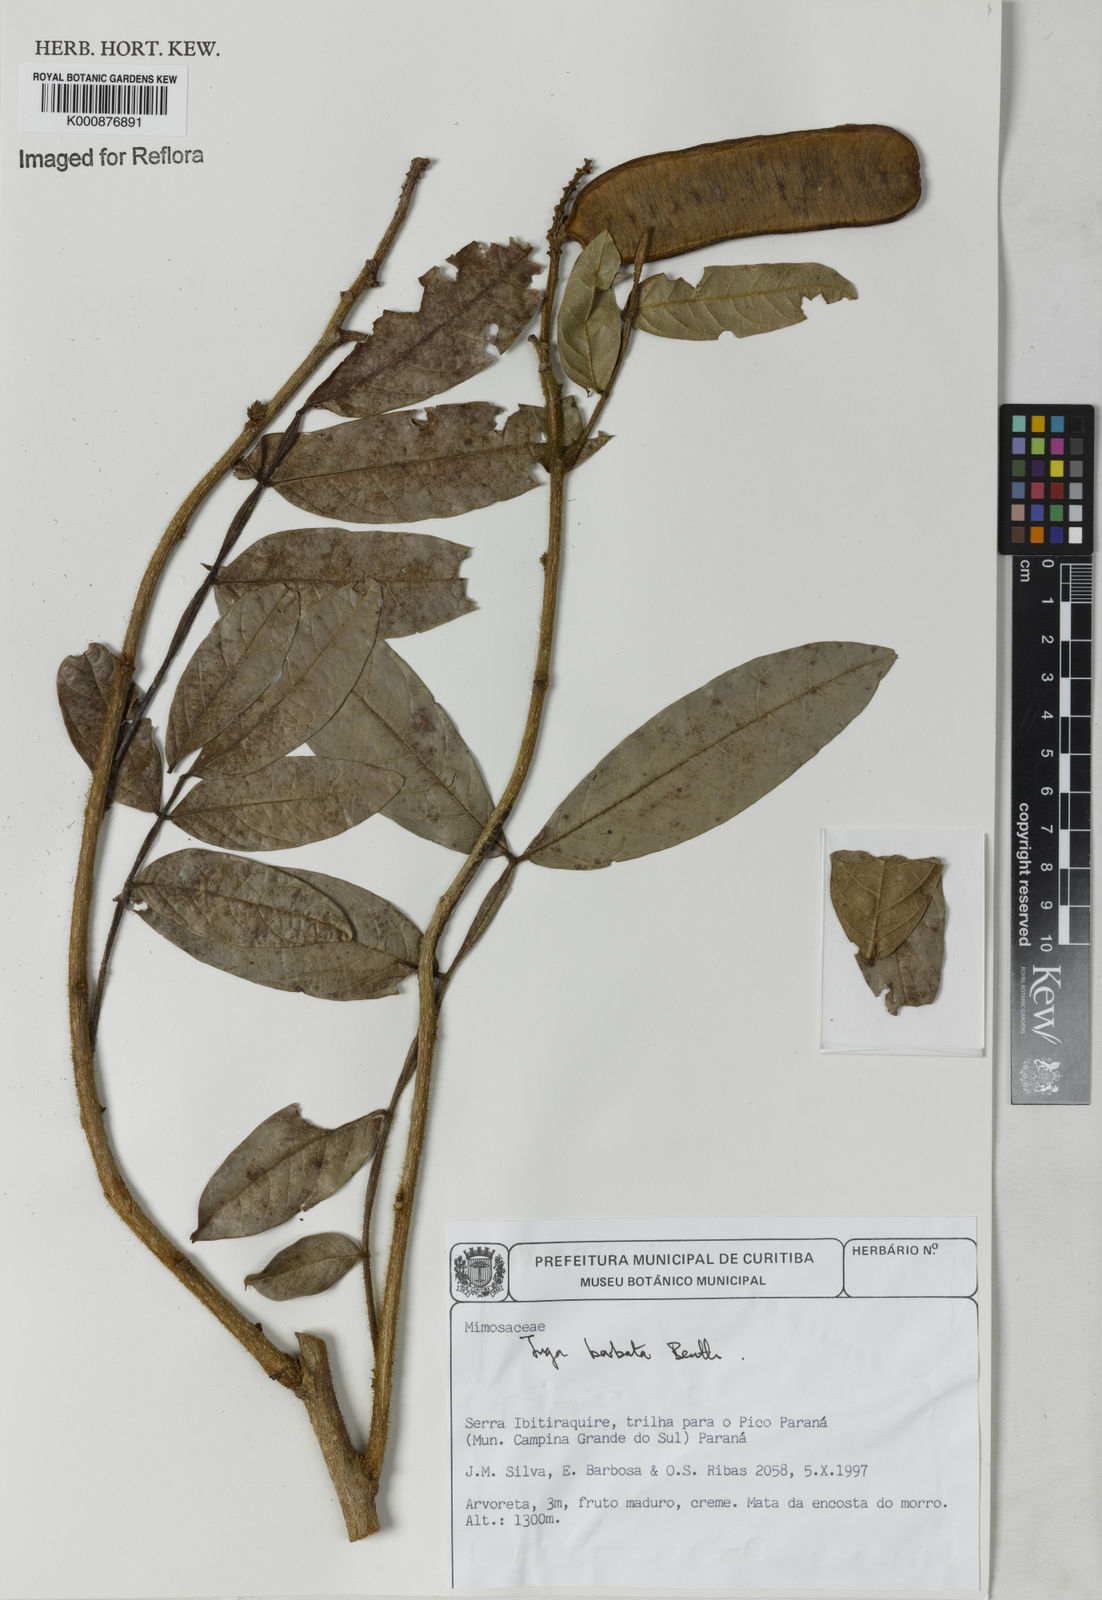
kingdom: Plantae
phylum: Tracheophyta
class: Magnoliopsida
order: Fabales
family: Fabaceae
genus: Inga
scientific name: Inga barbata
